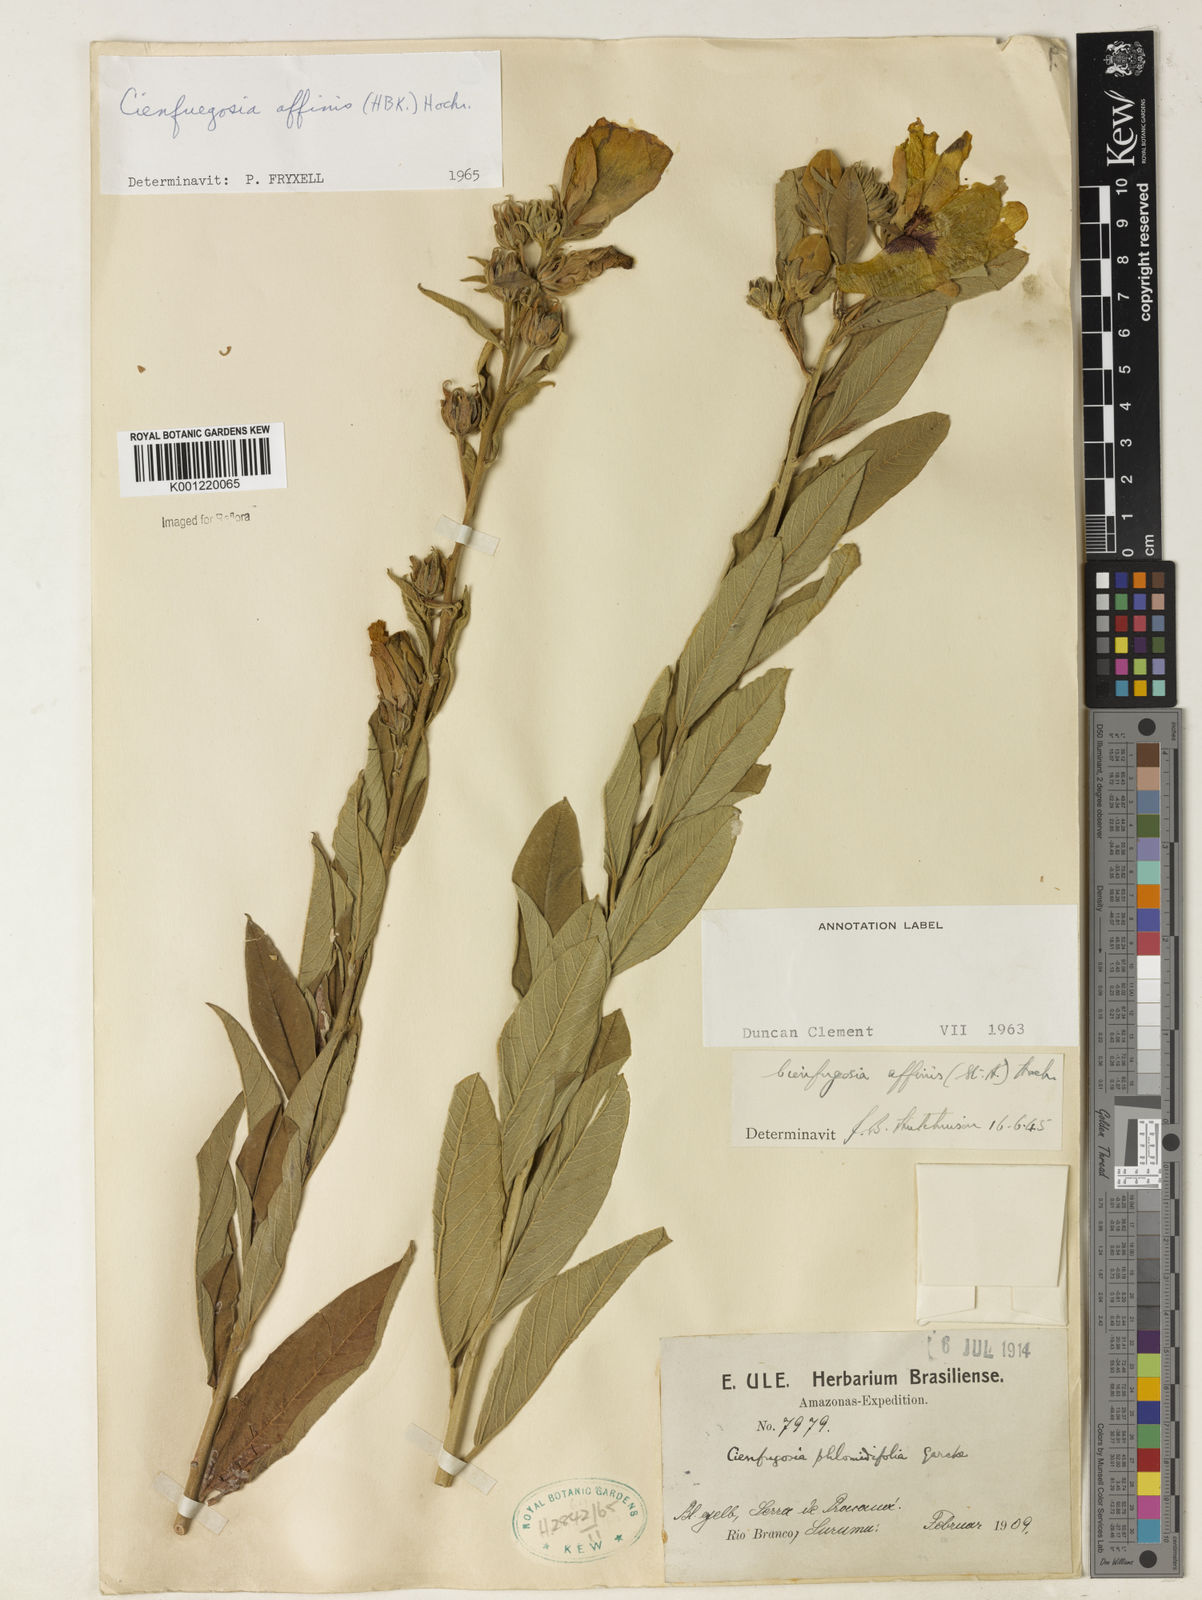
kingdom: Plantae
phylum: Tracheophyta
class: Magnoliopsida
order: Malvales
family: Malvaceae
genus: Cienfuegosia
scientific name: Cienfuegosia affinis
